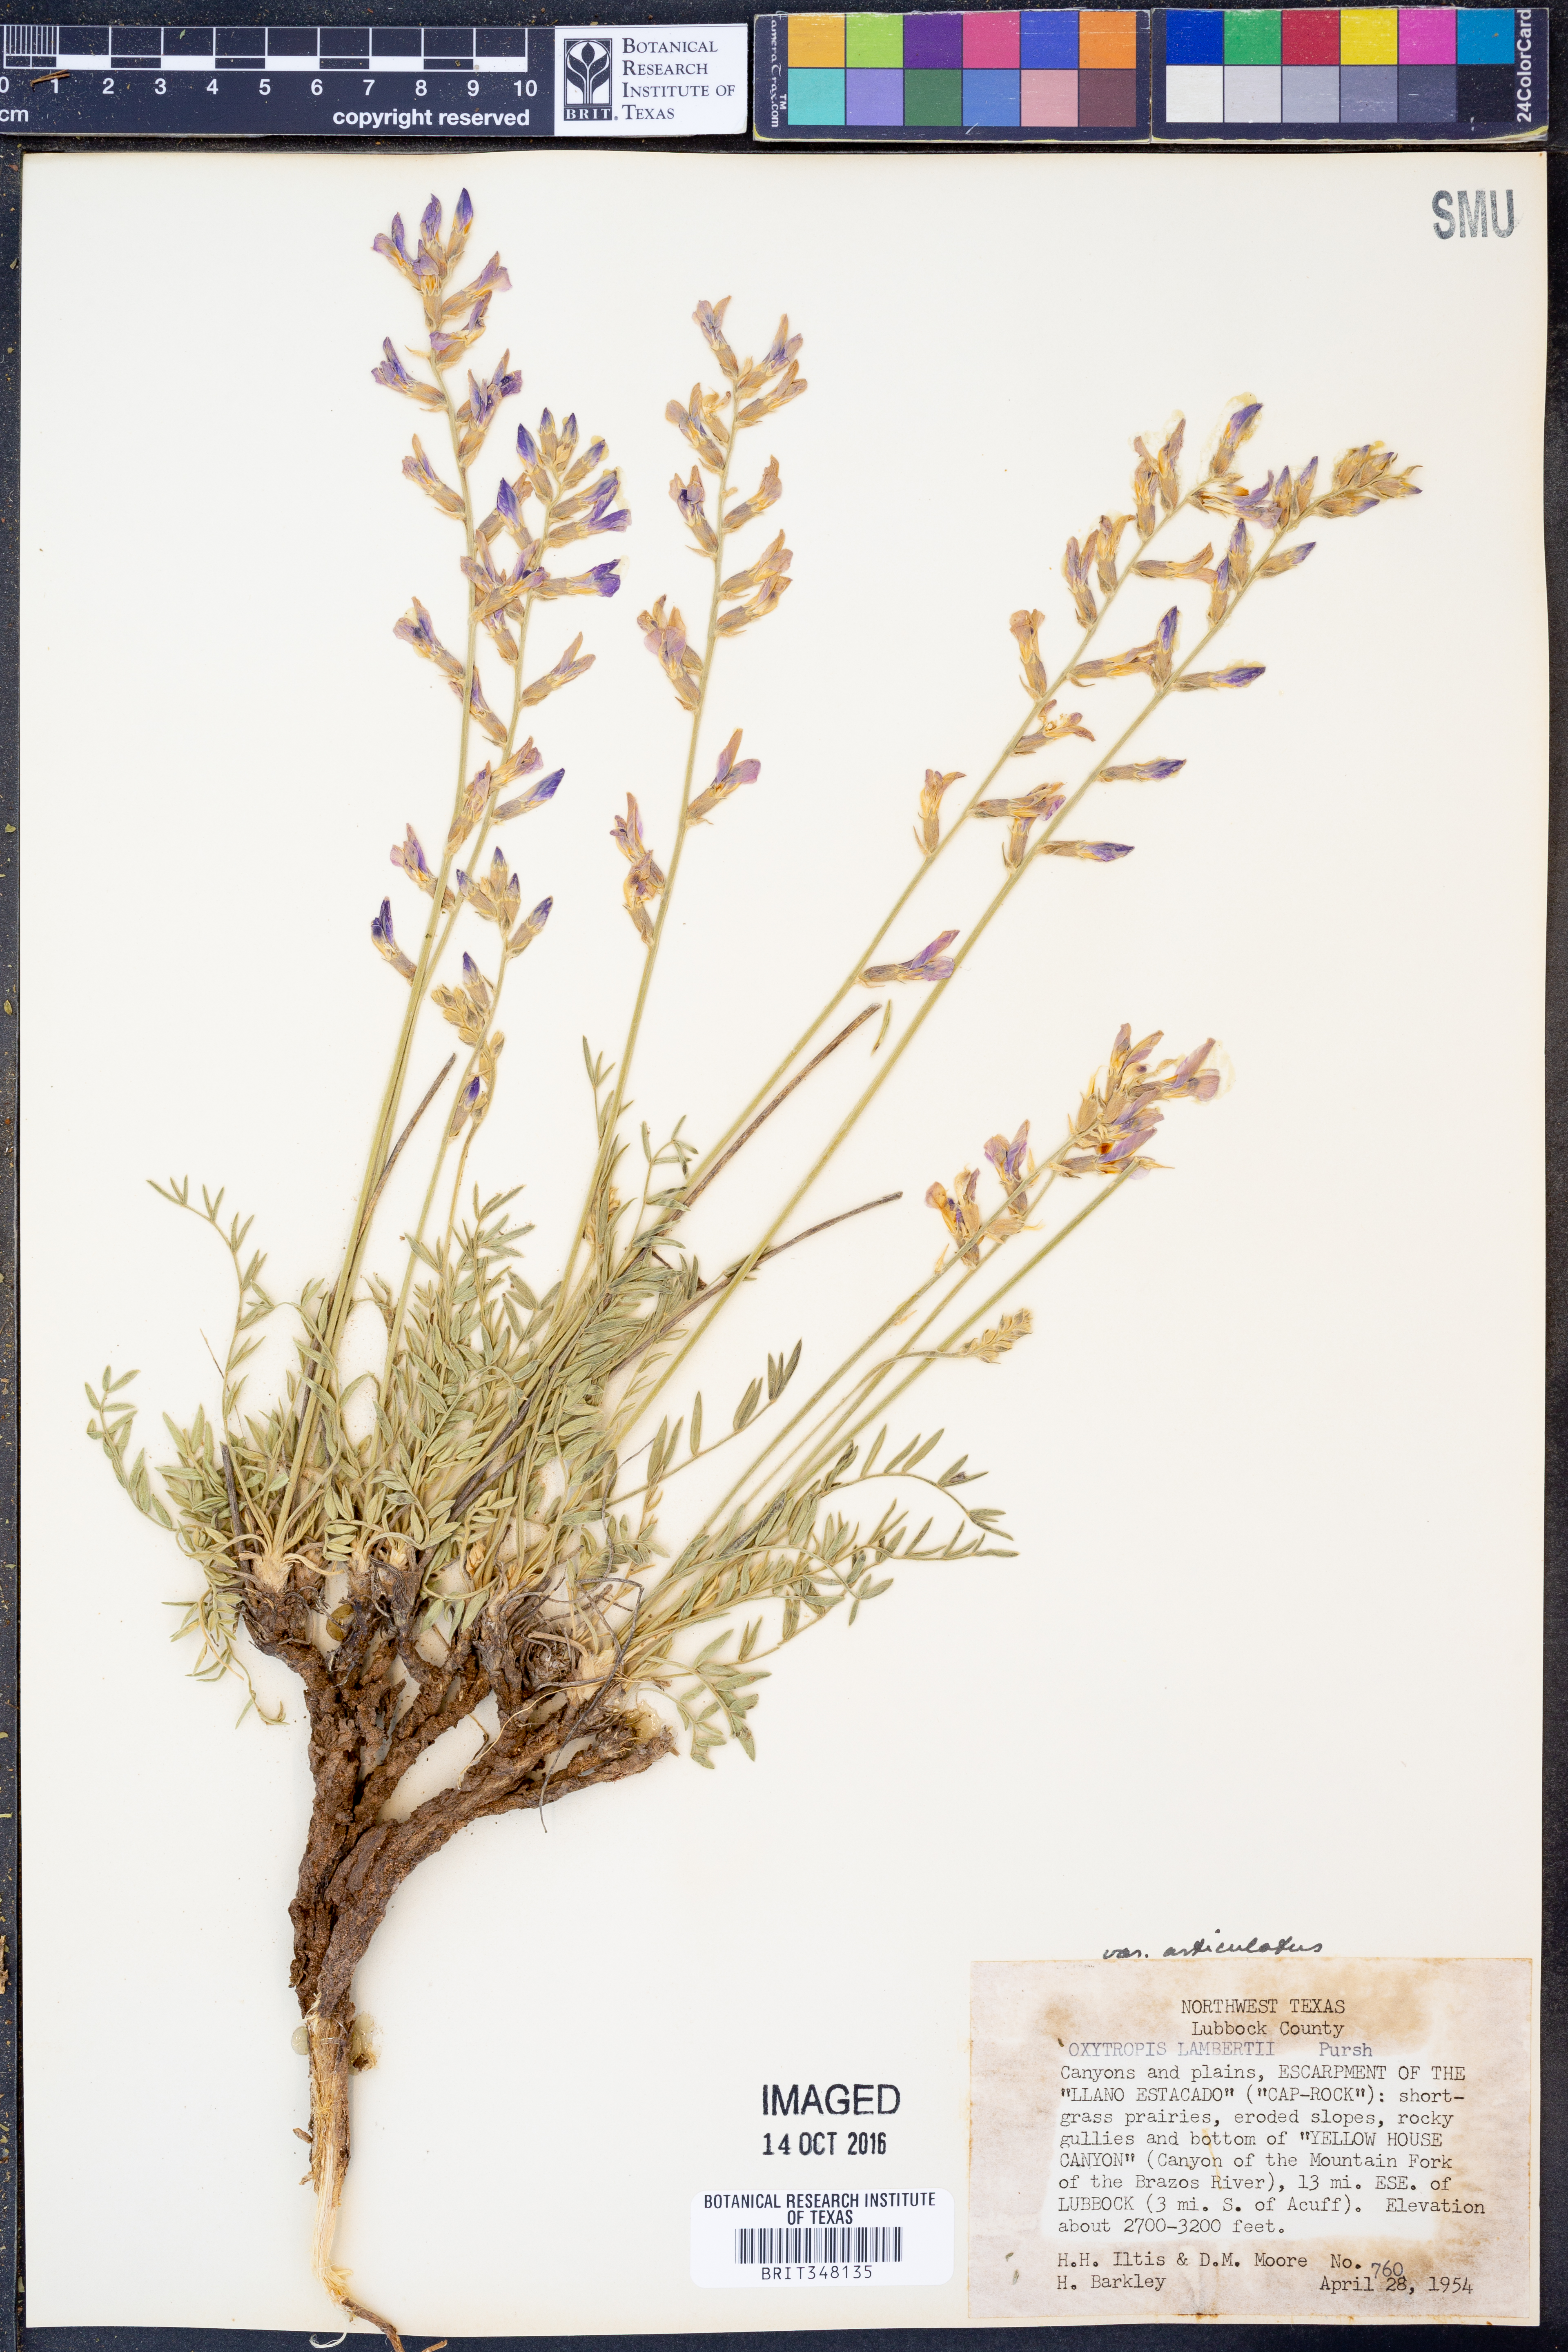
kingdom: Plantae
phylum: Tracheophyta
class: Magnoliopsida
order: Fabales
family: Fabaceae
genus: Oxytropis
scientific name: Oxytropis lambertii
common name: Purple locoweed
